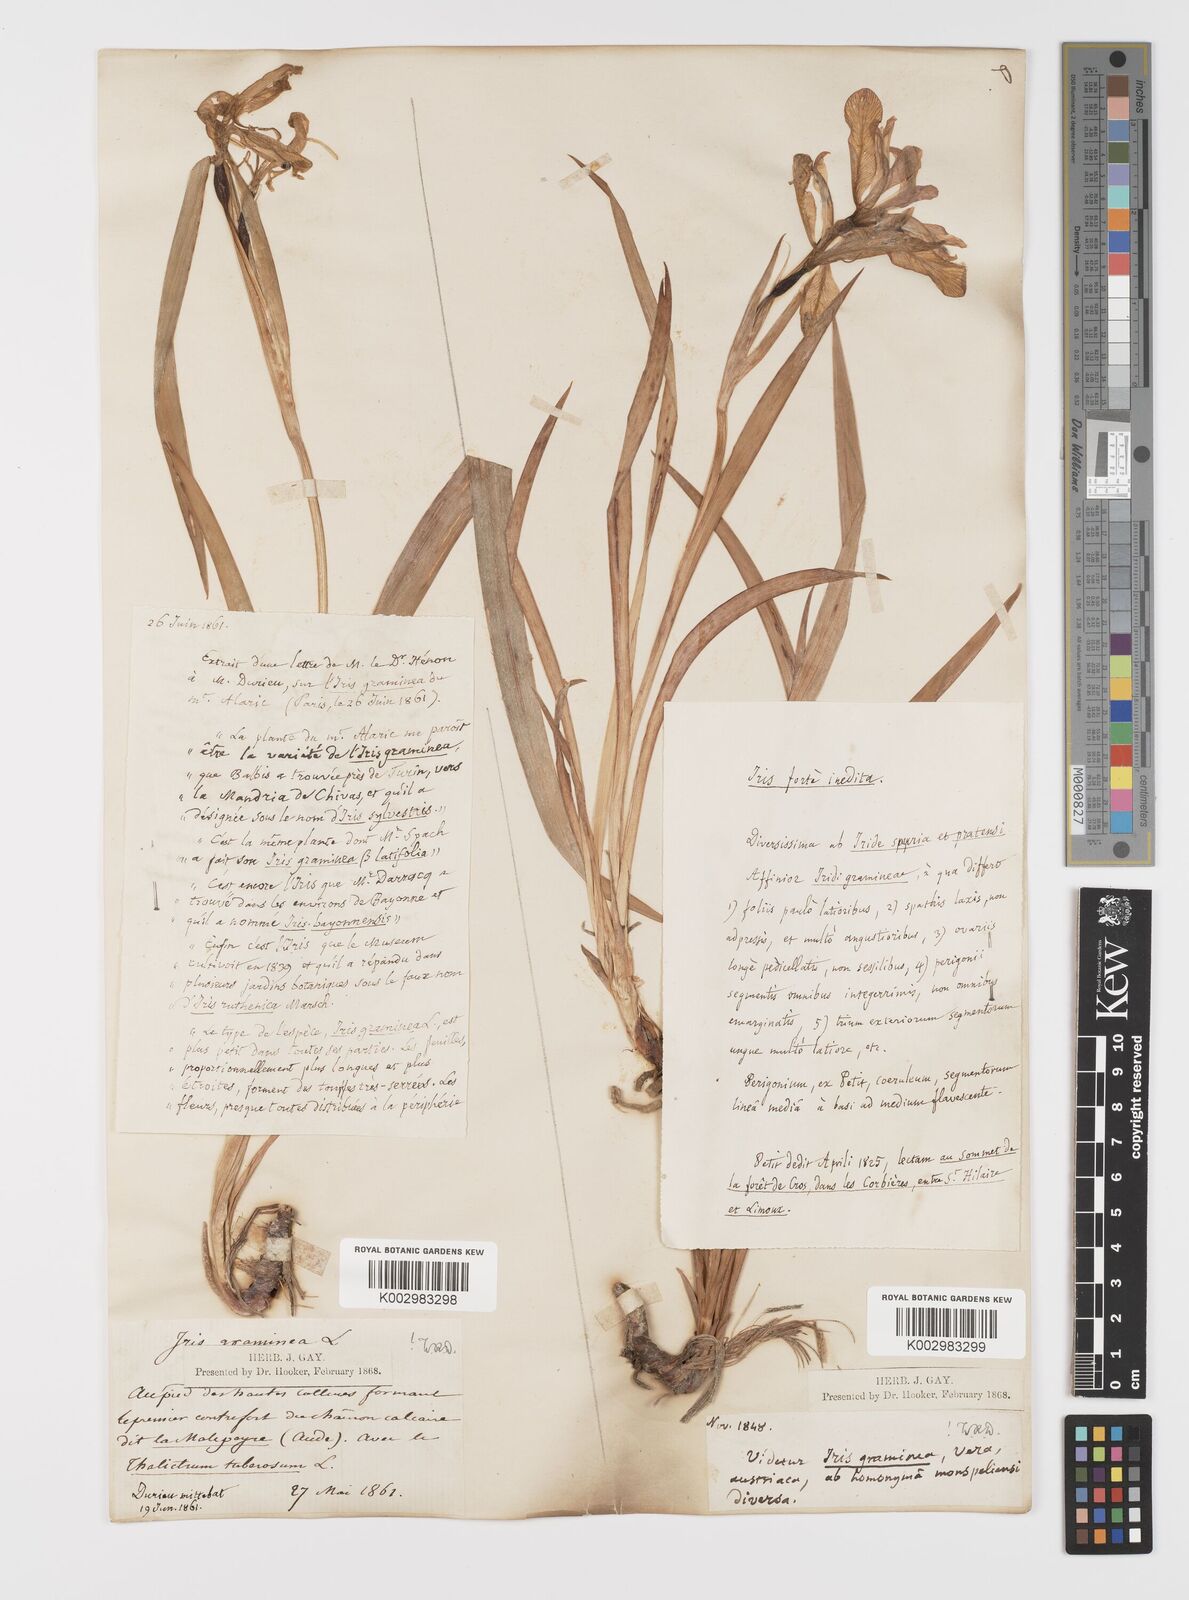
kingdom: Plantae
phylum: Tracheophyta
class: Liliopsida
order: Asparagales
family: Iridaceae
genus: Iris
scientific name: Iris graminea
